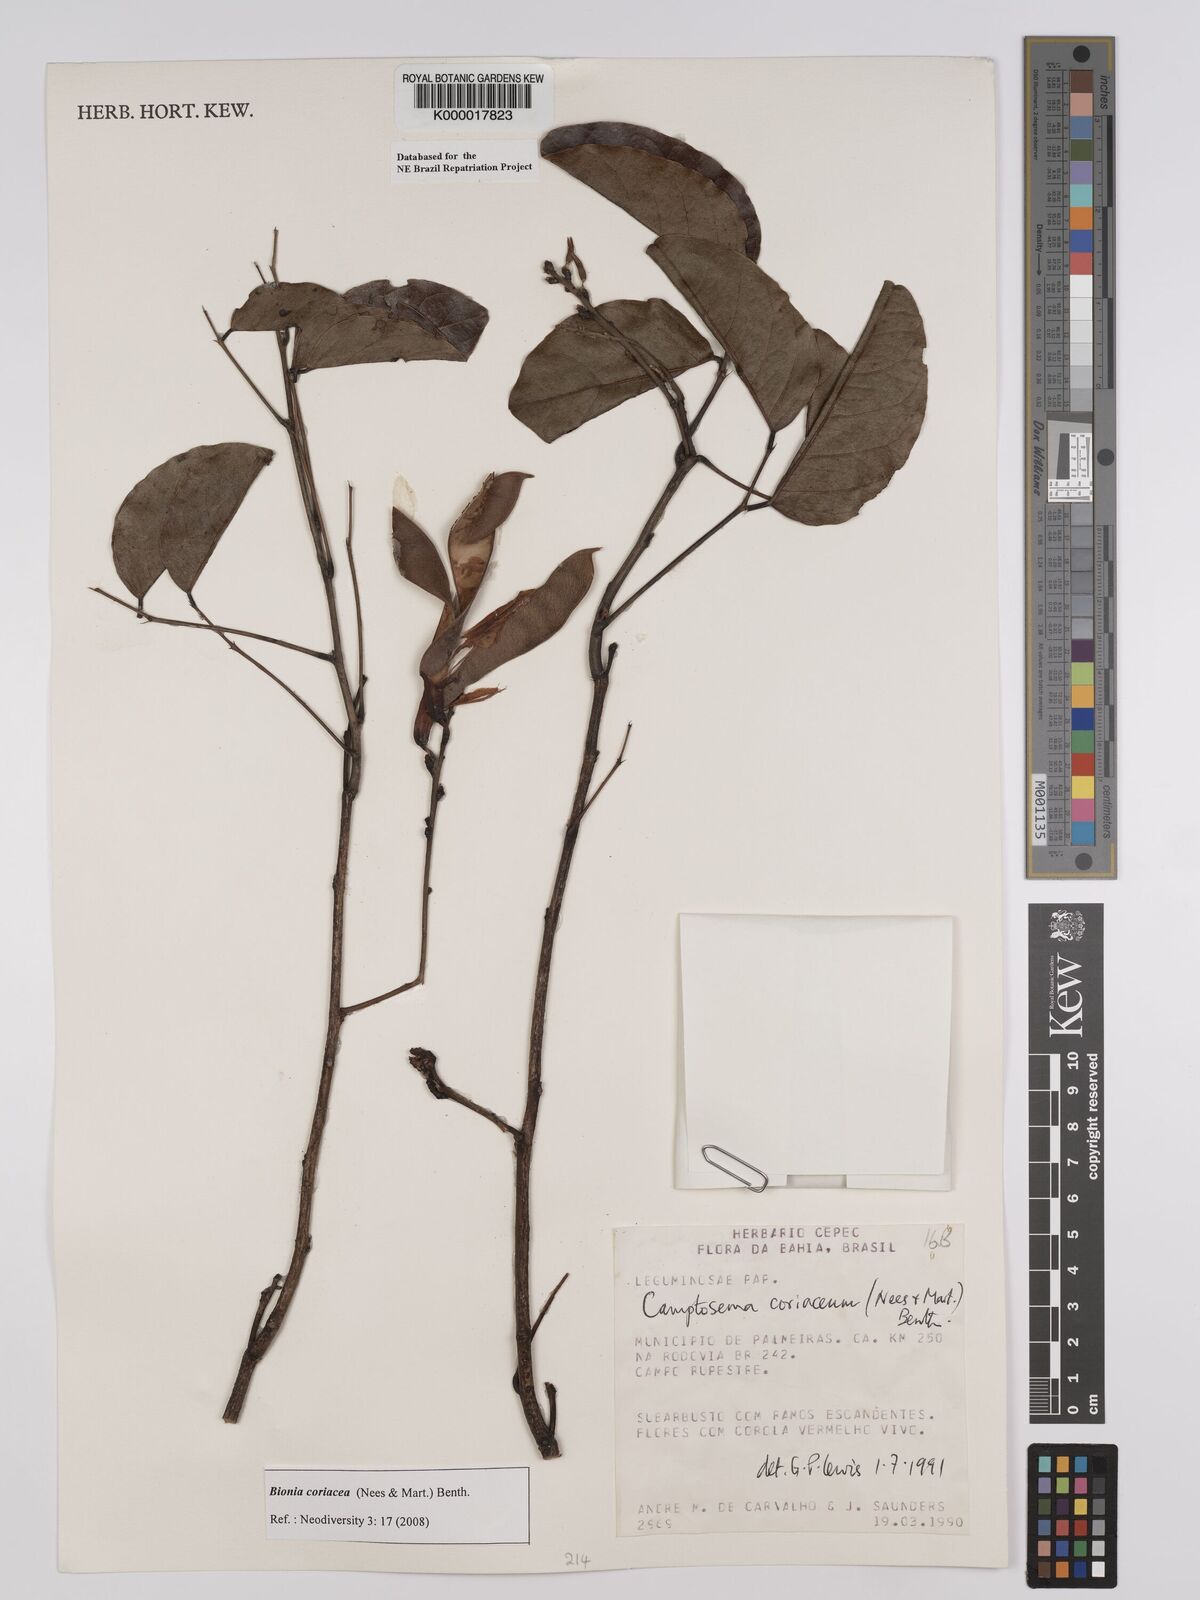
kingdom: Plantae
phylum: Tracheophyta
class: Magnoliopsida
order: Fabales
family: Fabaceae
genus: Camptosema
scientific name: Camptosema coriaceum
